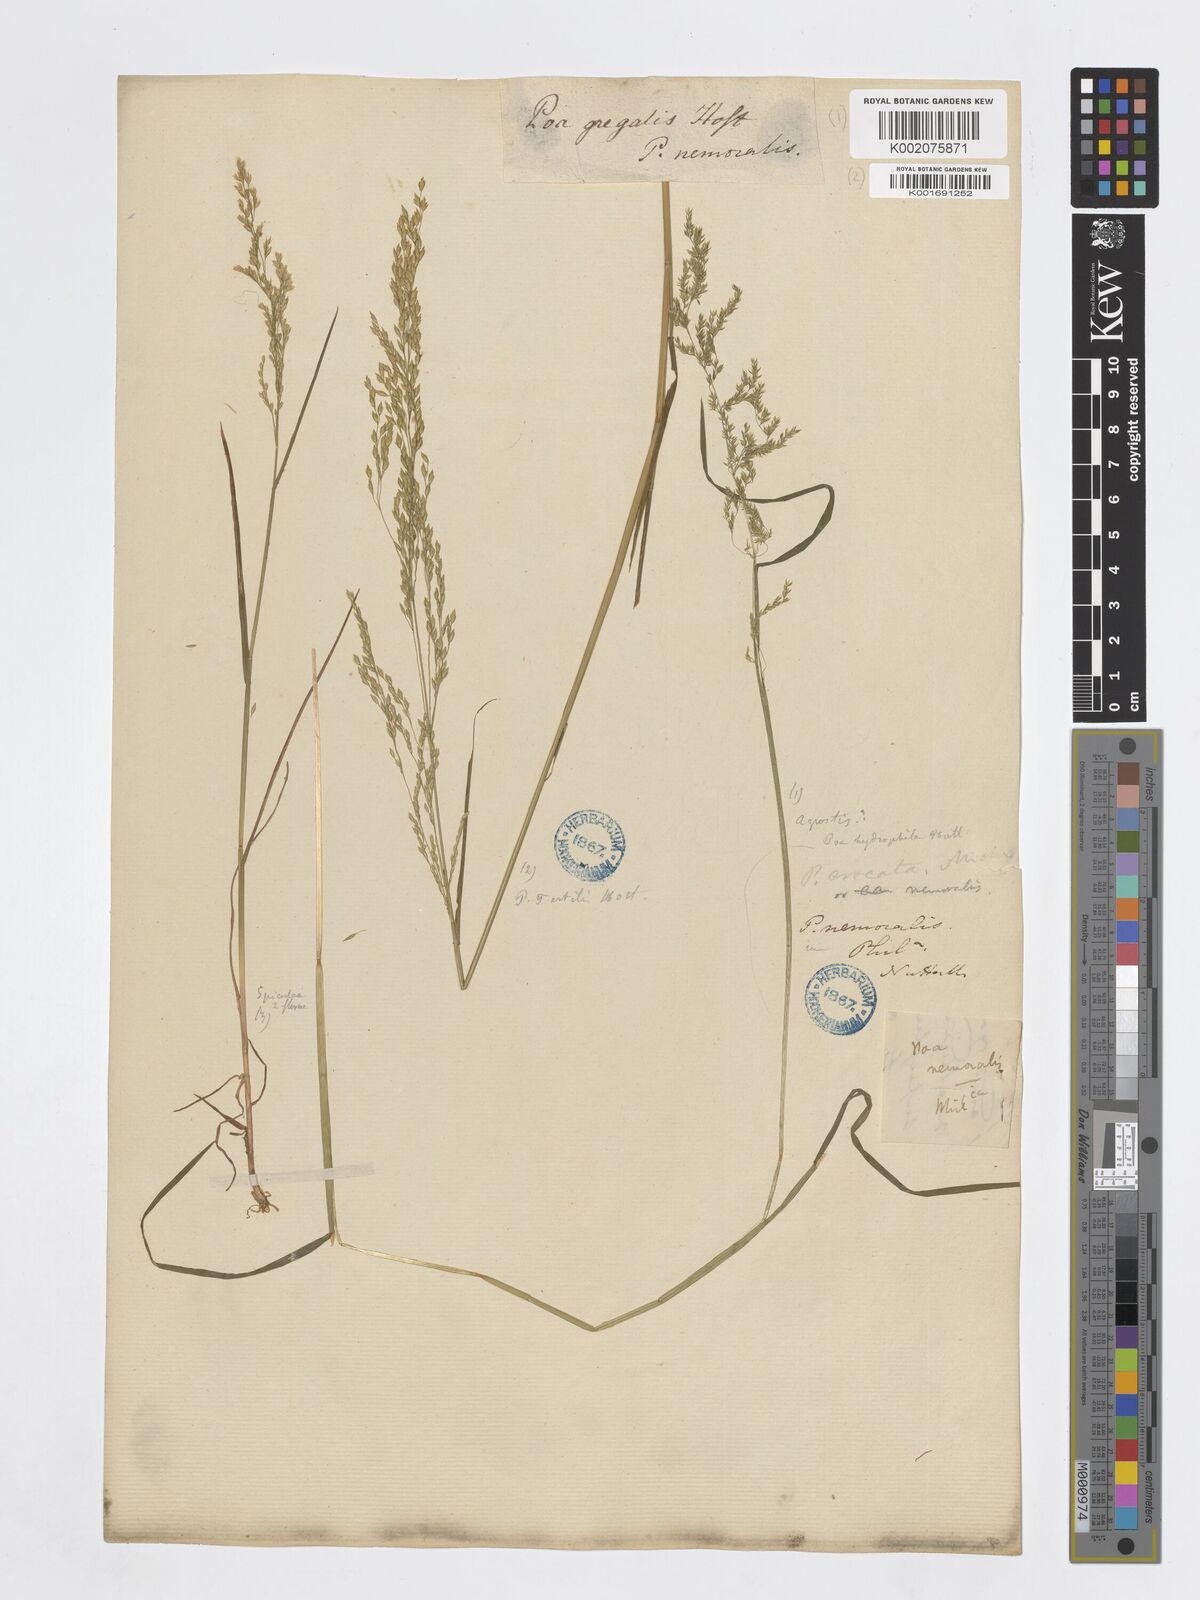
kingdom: Plantae
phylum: Tracheophyta
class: Liliopsida
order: Poales
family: Poaceae
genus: Poa
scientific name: Poa nemoralis
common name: Wood bluegrass
